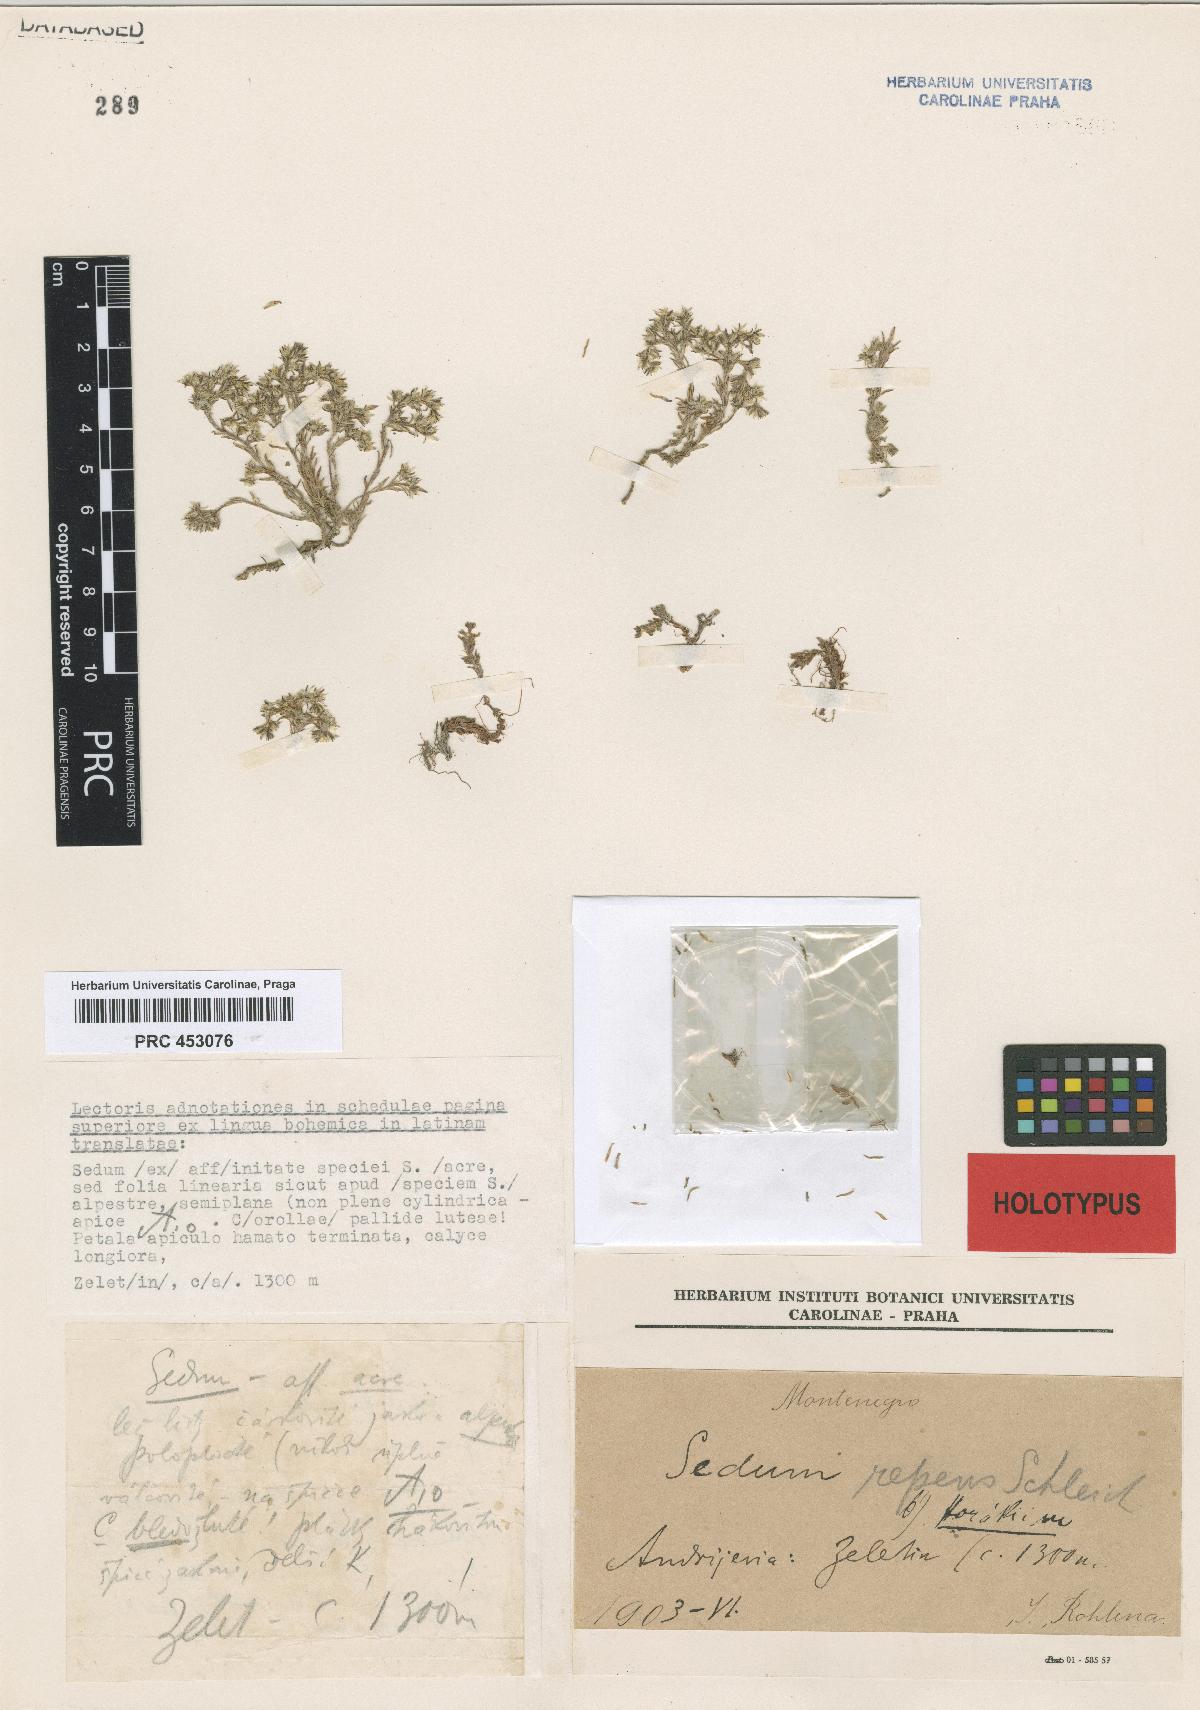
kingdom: Plantae
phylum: Tracheophyta
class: Magnoliopsida
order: Saxifragales
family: Crassulaceae
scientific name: Crassulaceae
